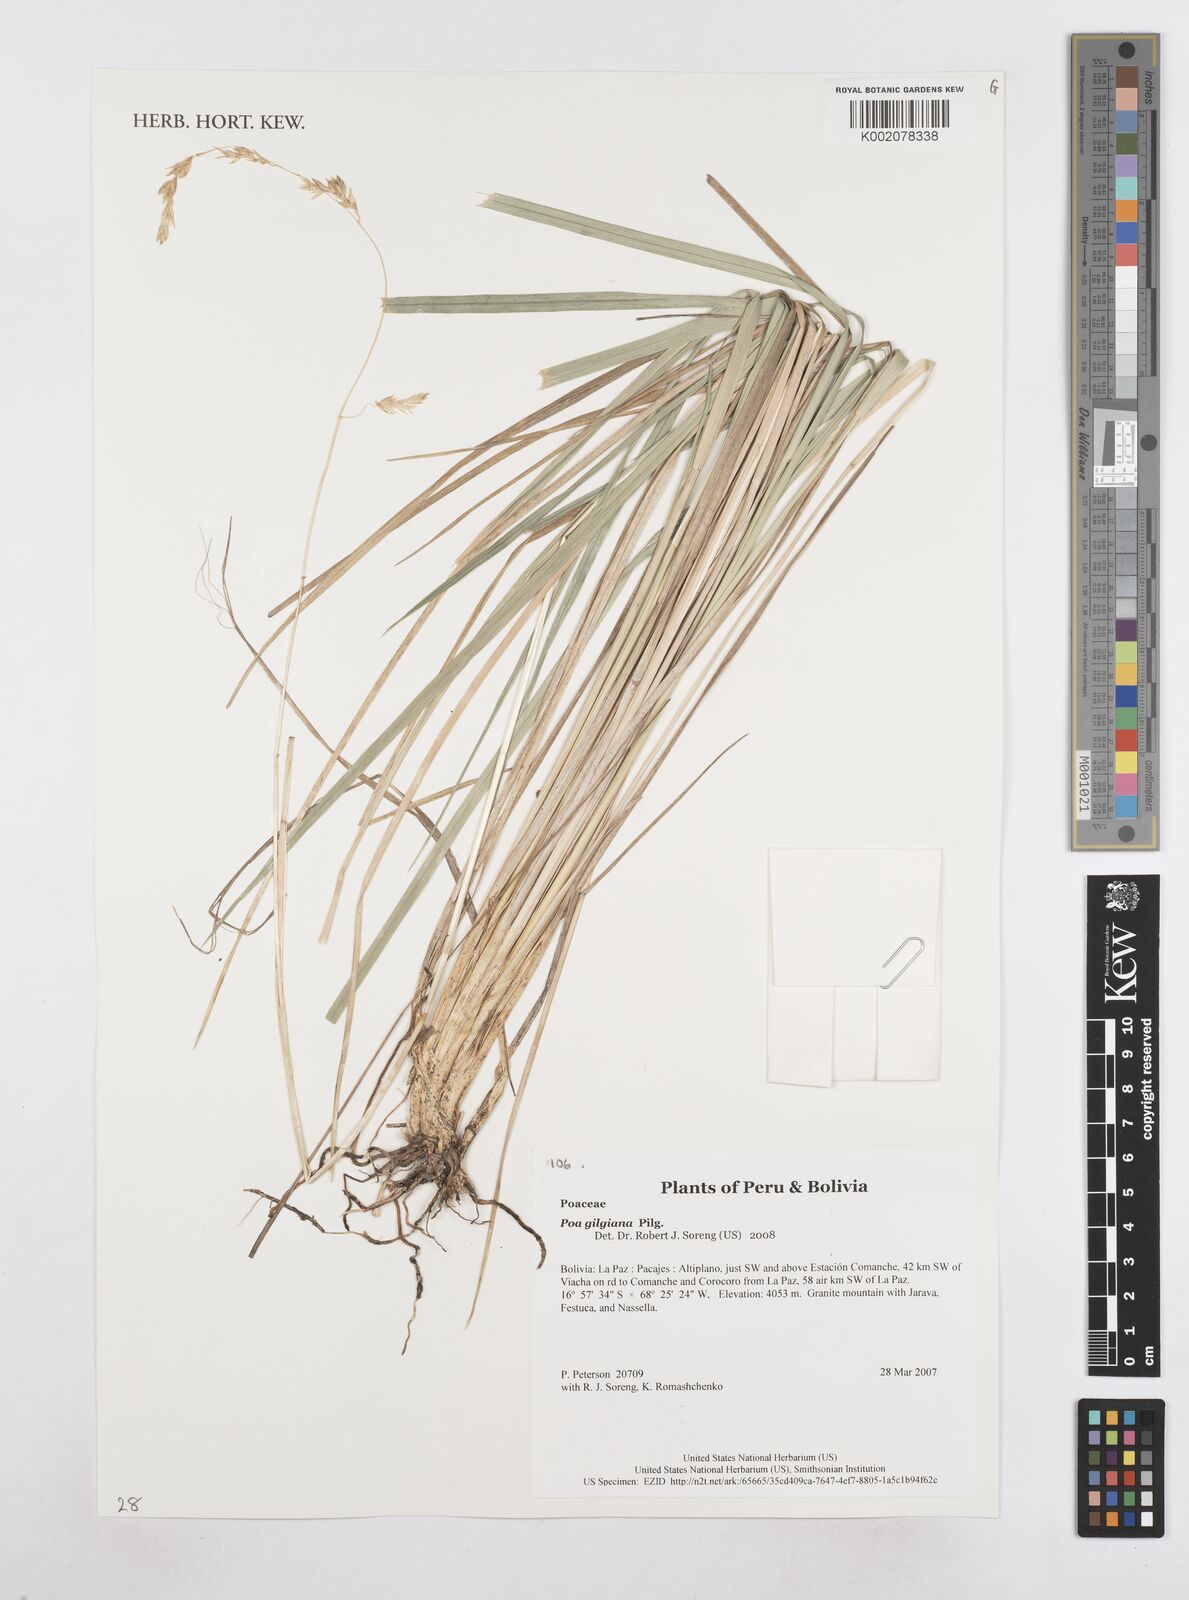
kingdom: Plantae
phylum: Tracheophyta
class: Liliopsida
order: Poales
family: Poaceae
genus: Poa
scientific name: Poa gilgiana
